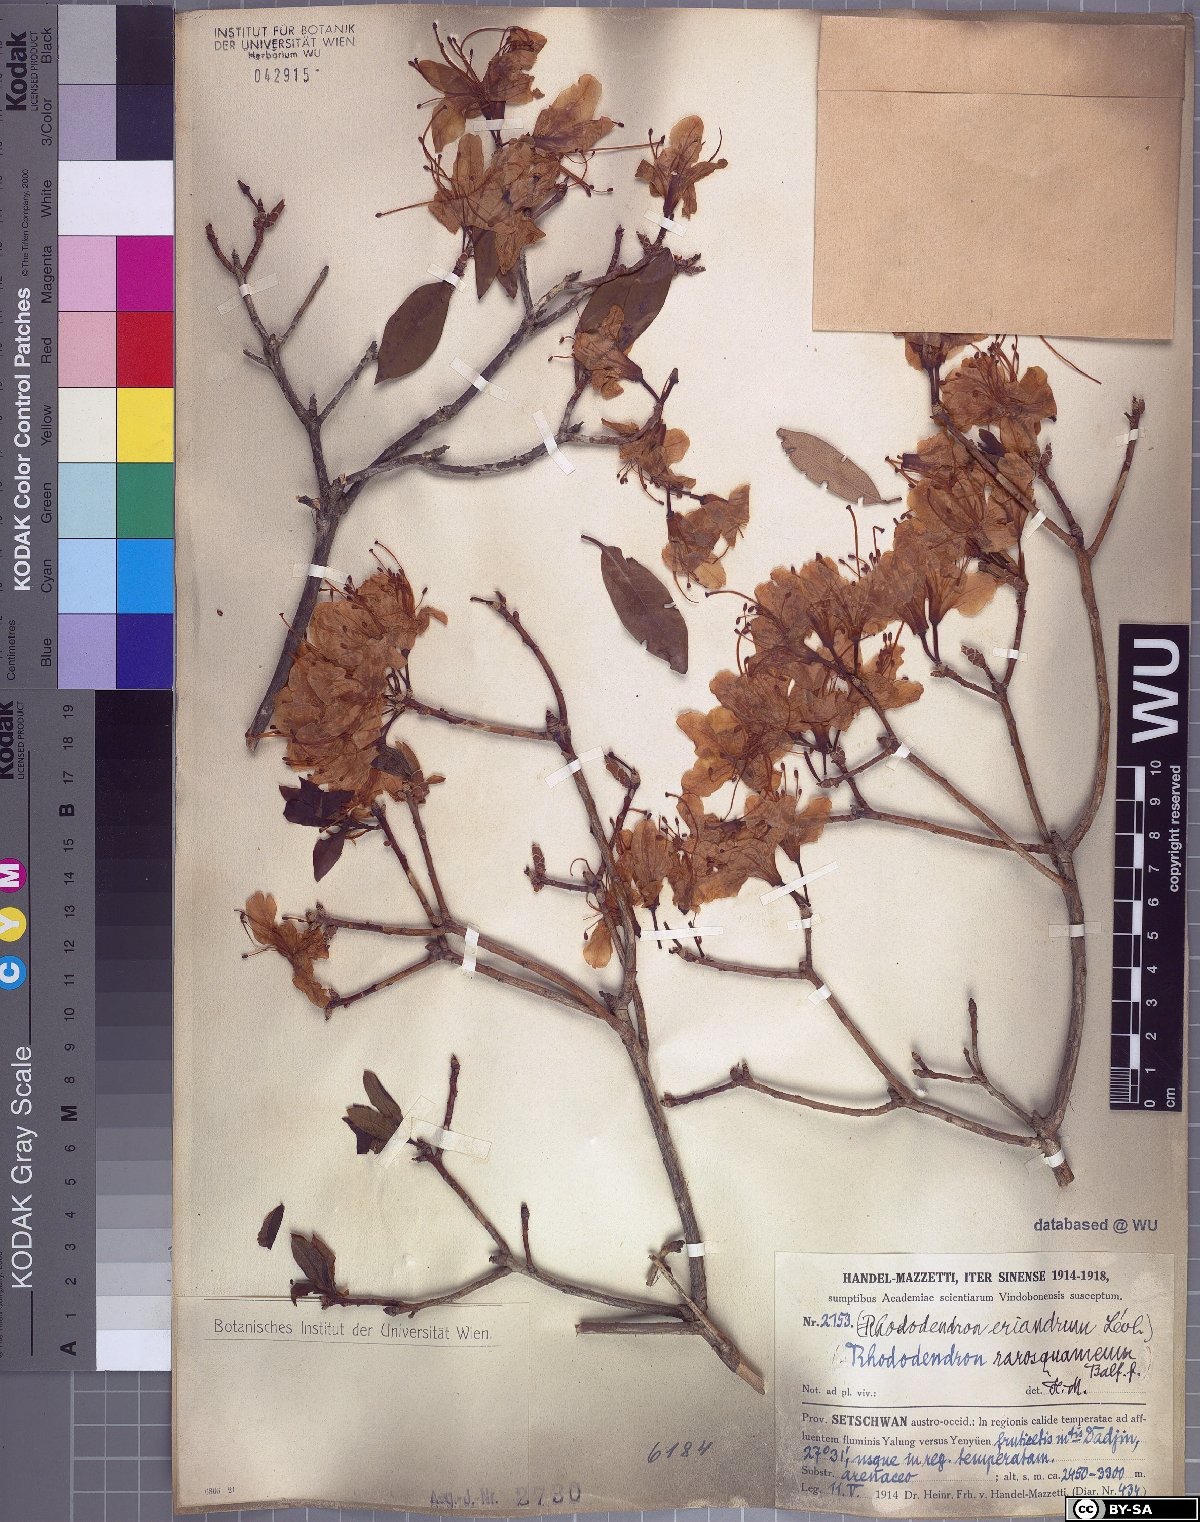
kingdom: Plantae
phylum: Tracheophyta
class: Magnoliopsida
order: Ericales
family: Ericaceae
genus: Rhododendron
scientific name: Rhododendron rigidum
